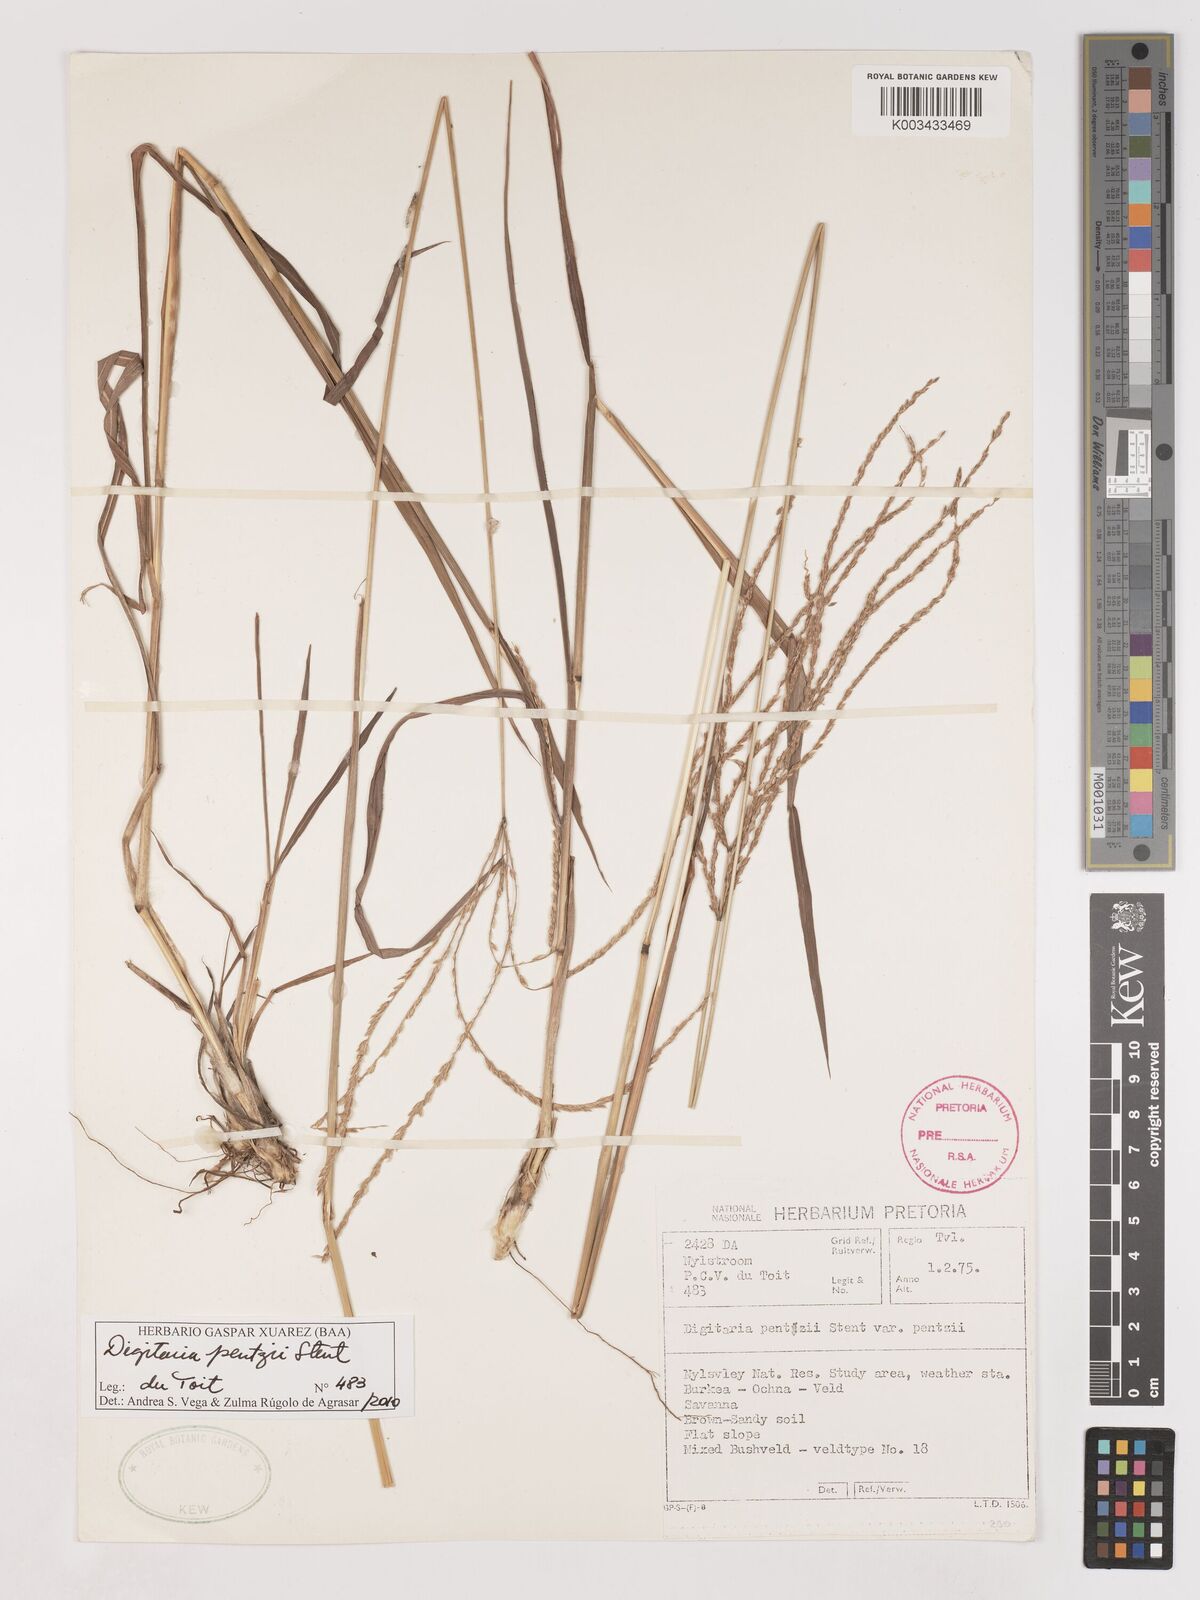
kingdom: Plantae
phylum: Tracheophyta
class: Liliopsida
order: Poales
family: Poaceae
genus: Digitaria
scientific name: Digitaria eriantha
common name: Digitgrass
